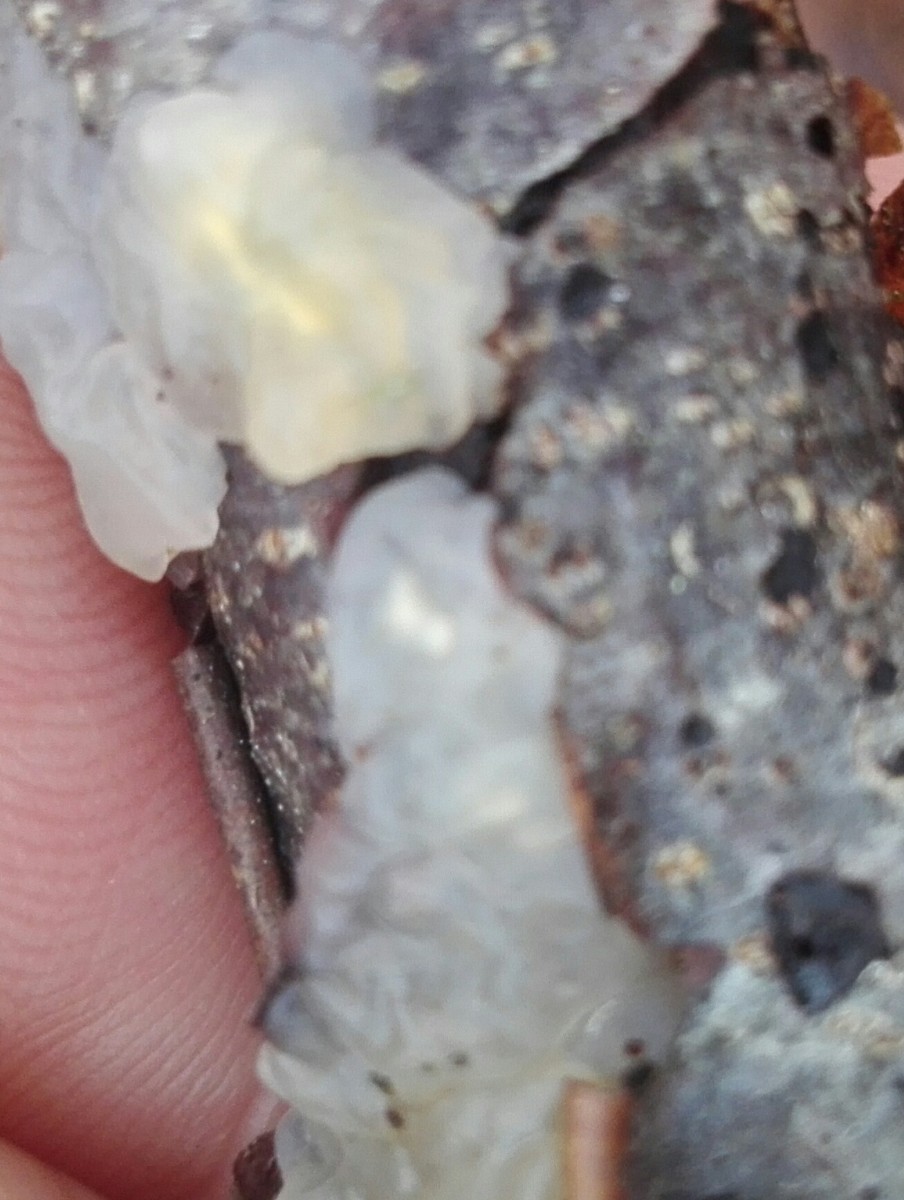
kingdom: Fungi
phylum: Basidiomycota
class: Agaricomycetes
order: Auriculariales
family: Hyaloriaceae
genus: Myxarium
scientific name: Myxarium nucleatum
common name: klar bævretop
